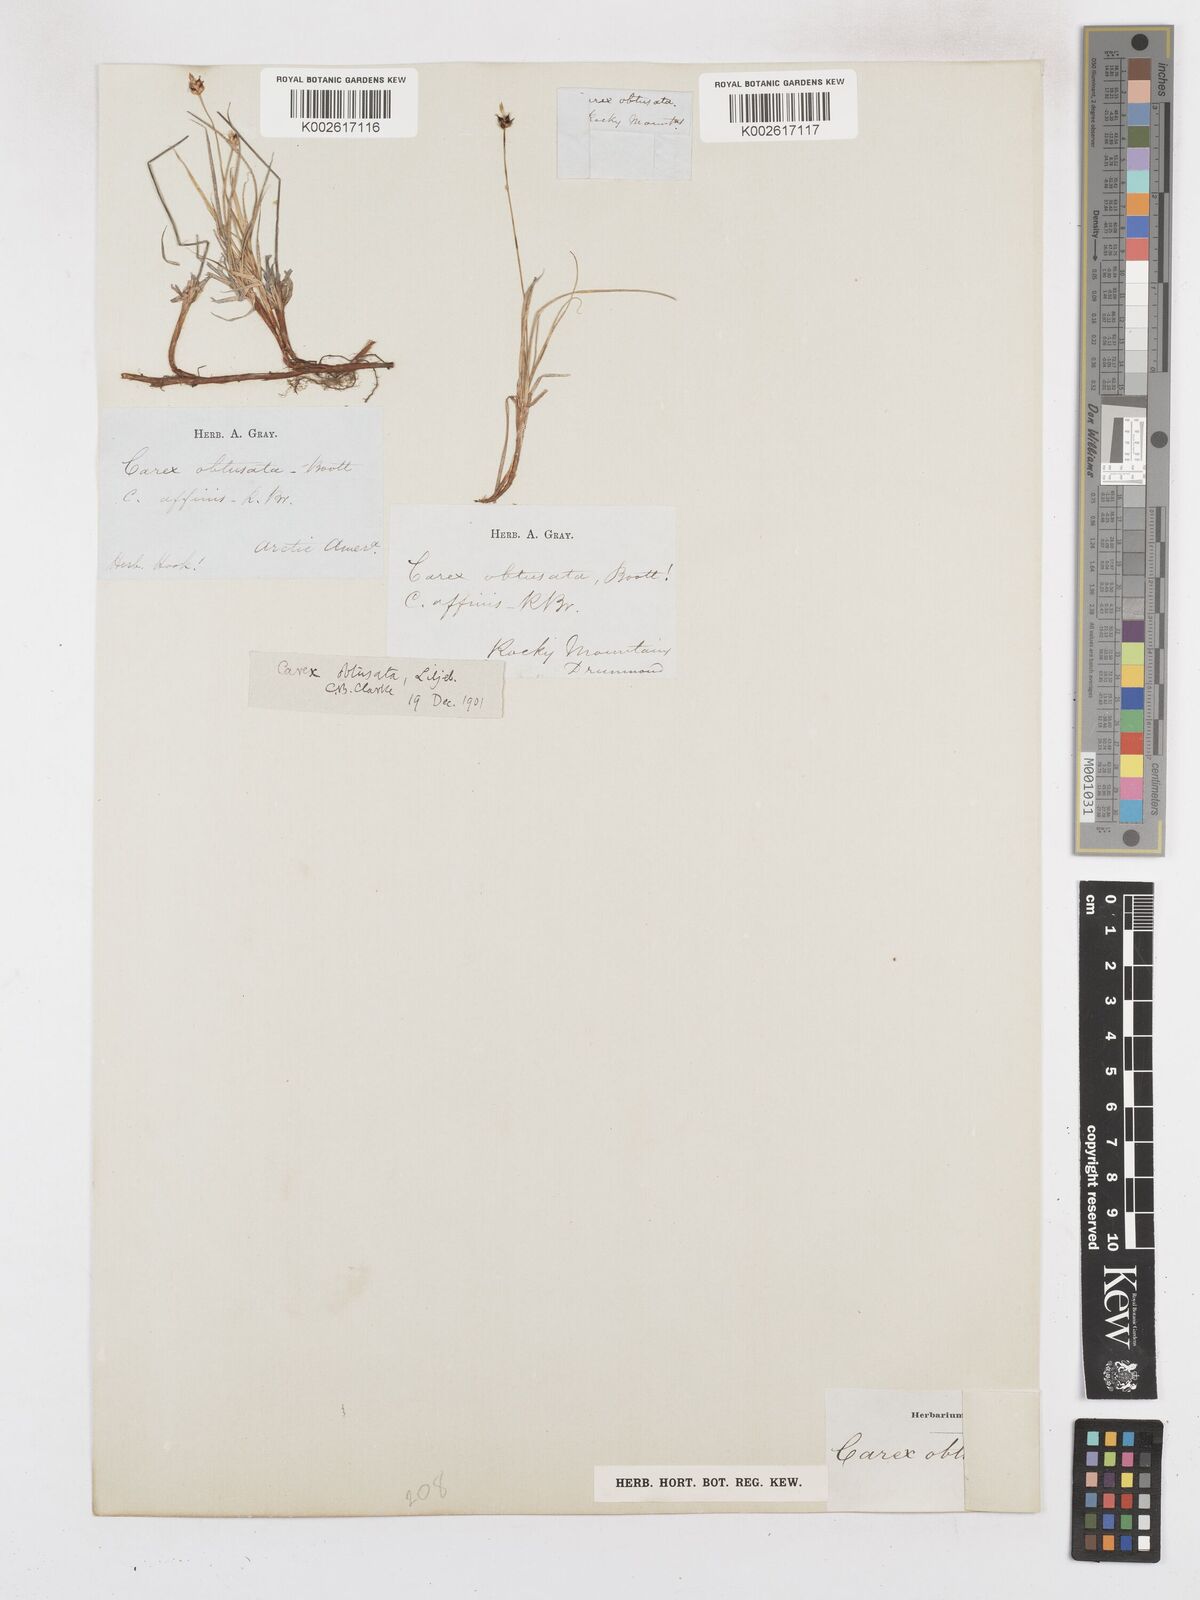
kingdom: Plantae
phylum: Tracheophyta
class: Liliopsida
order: Poales
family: Cyperaceae
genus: Carex
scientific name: Carex obtusata
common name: Blunt sedge
